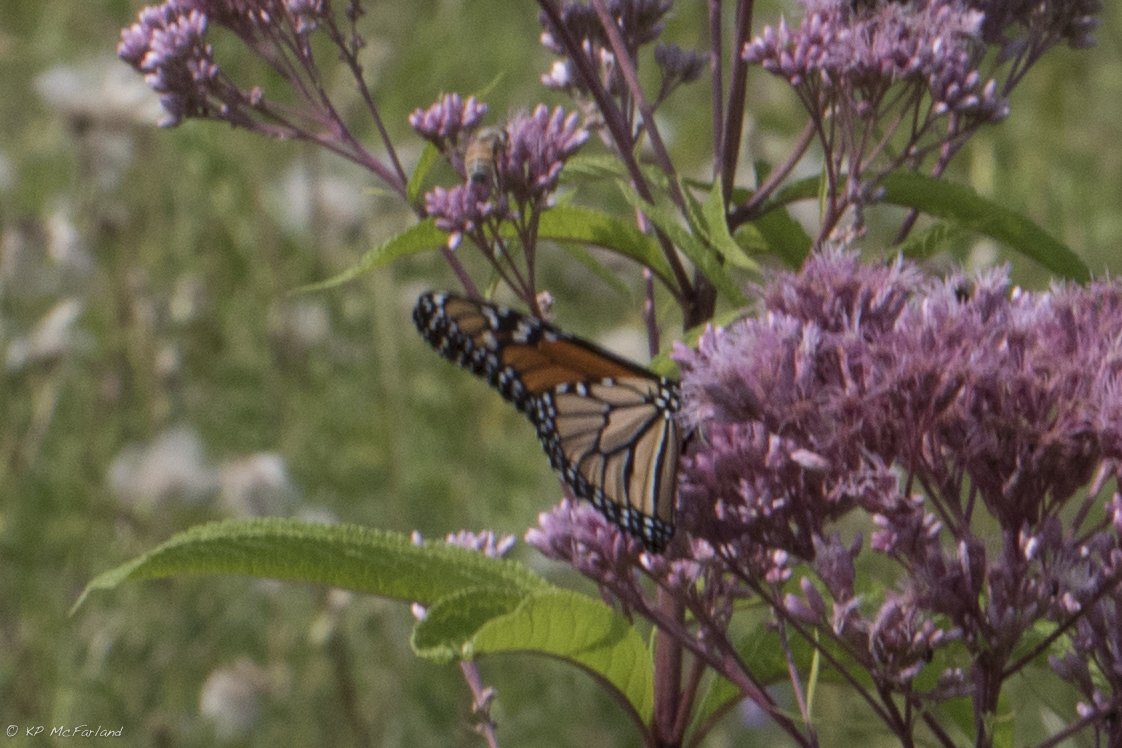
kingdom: Animalia
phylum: Arthropoda
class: Insecta
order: Lepidoptera
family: Nymphalidae
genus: Danaus
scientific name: Danaus plexippus
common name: Monarch
